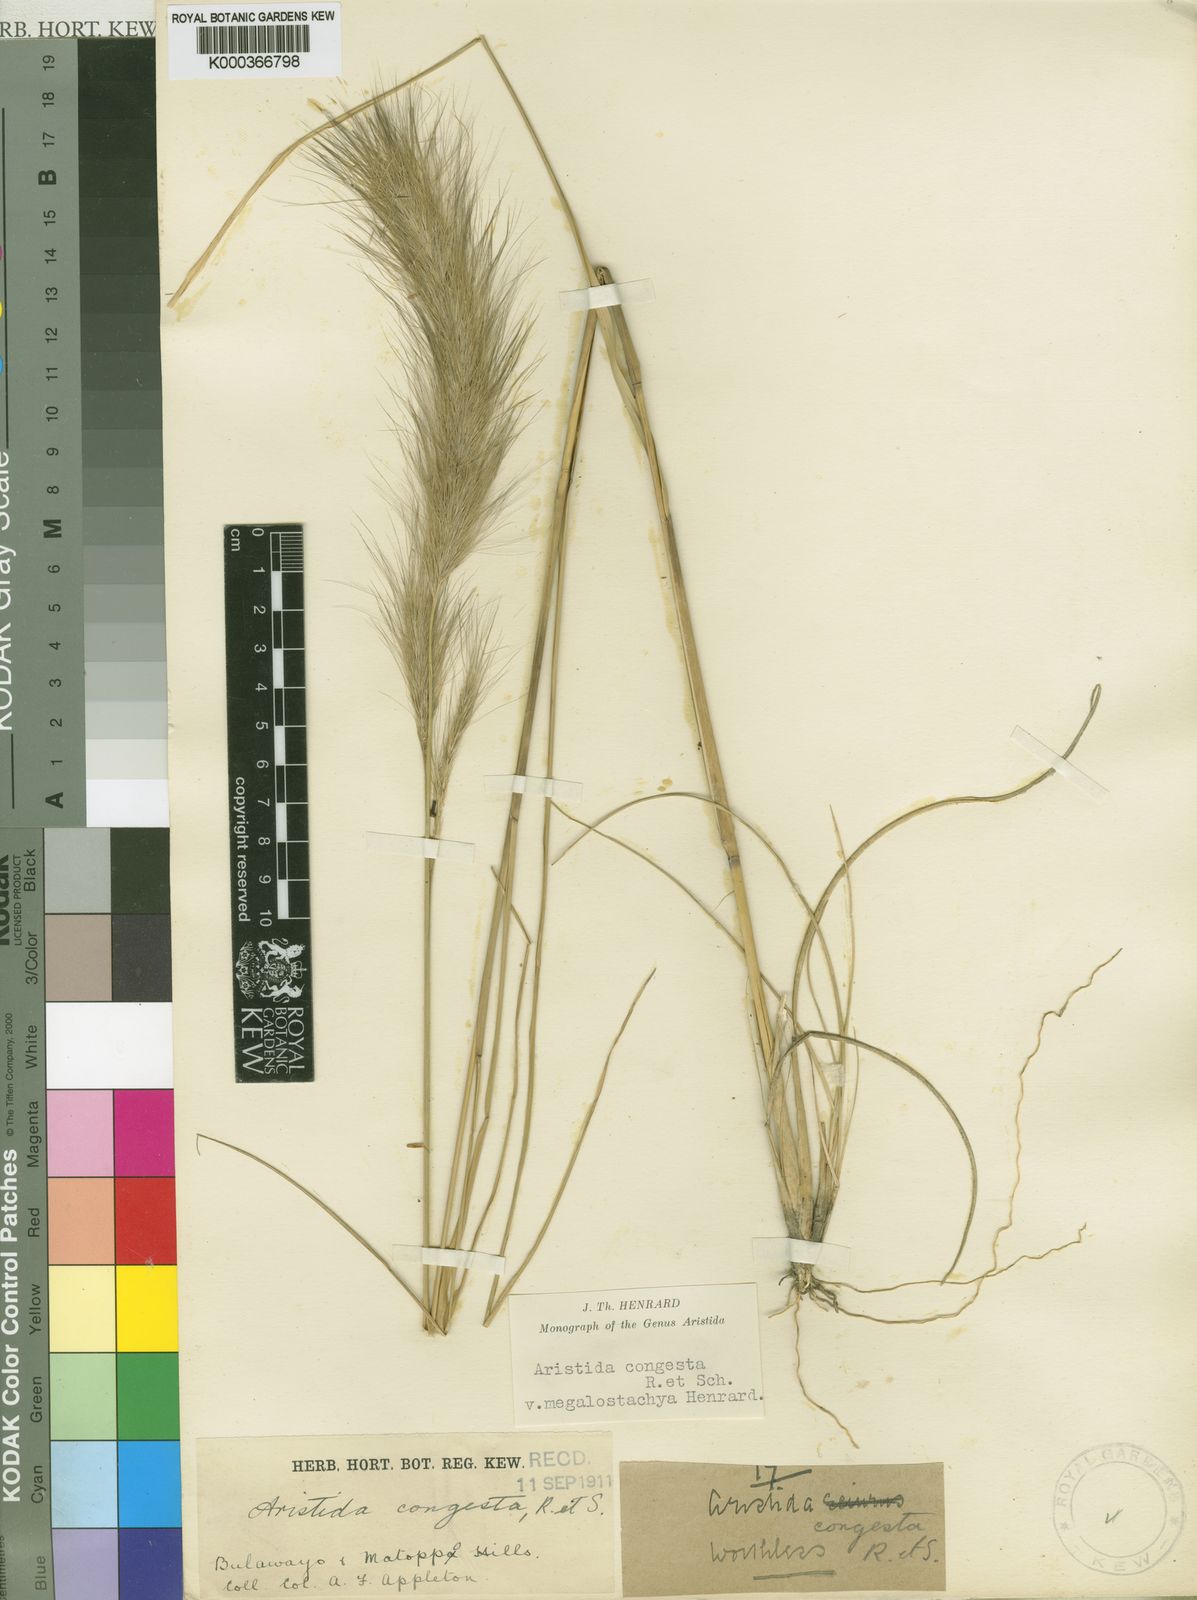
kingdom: Plantae
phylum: Tracheophyta
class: Liliopsida
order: Poales
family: Poaceae
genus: Aristida
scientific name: Aristida congesta
